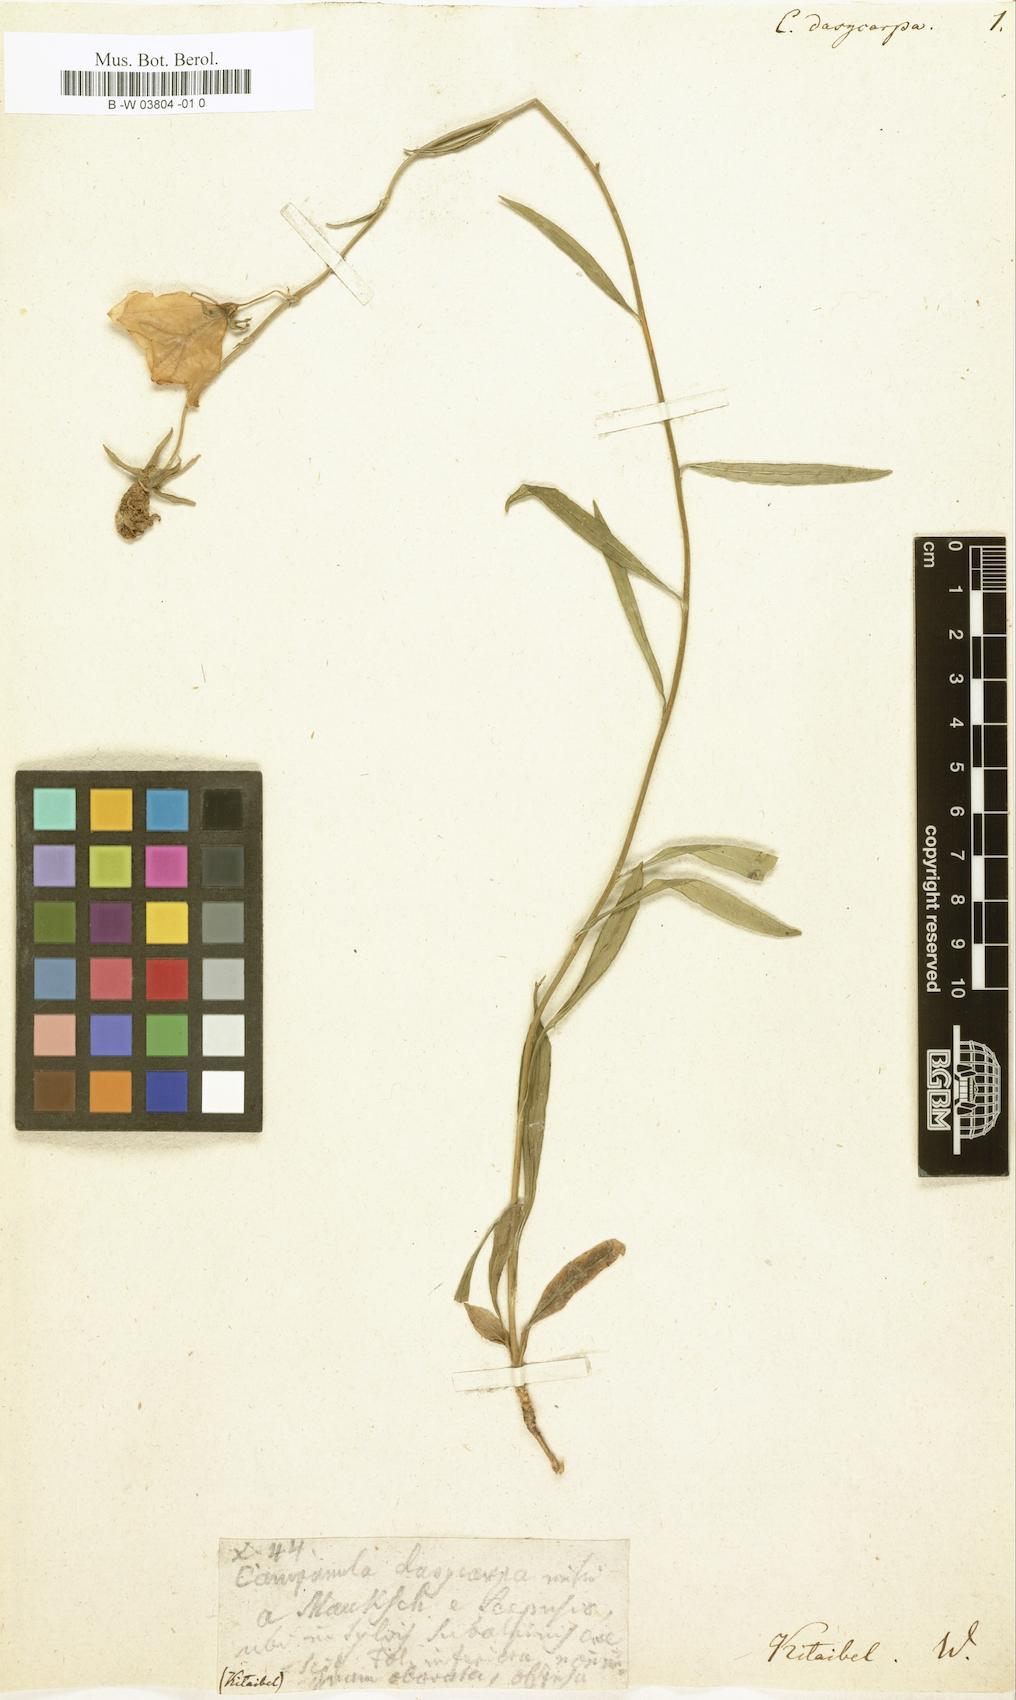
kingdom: Plantae
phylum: Tracheophyta
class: Magnoliopsida
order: Asterales
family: Campanulaceae
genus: Campanula
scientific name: Campanula persicifolia
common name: Peach-leaved bellflower
